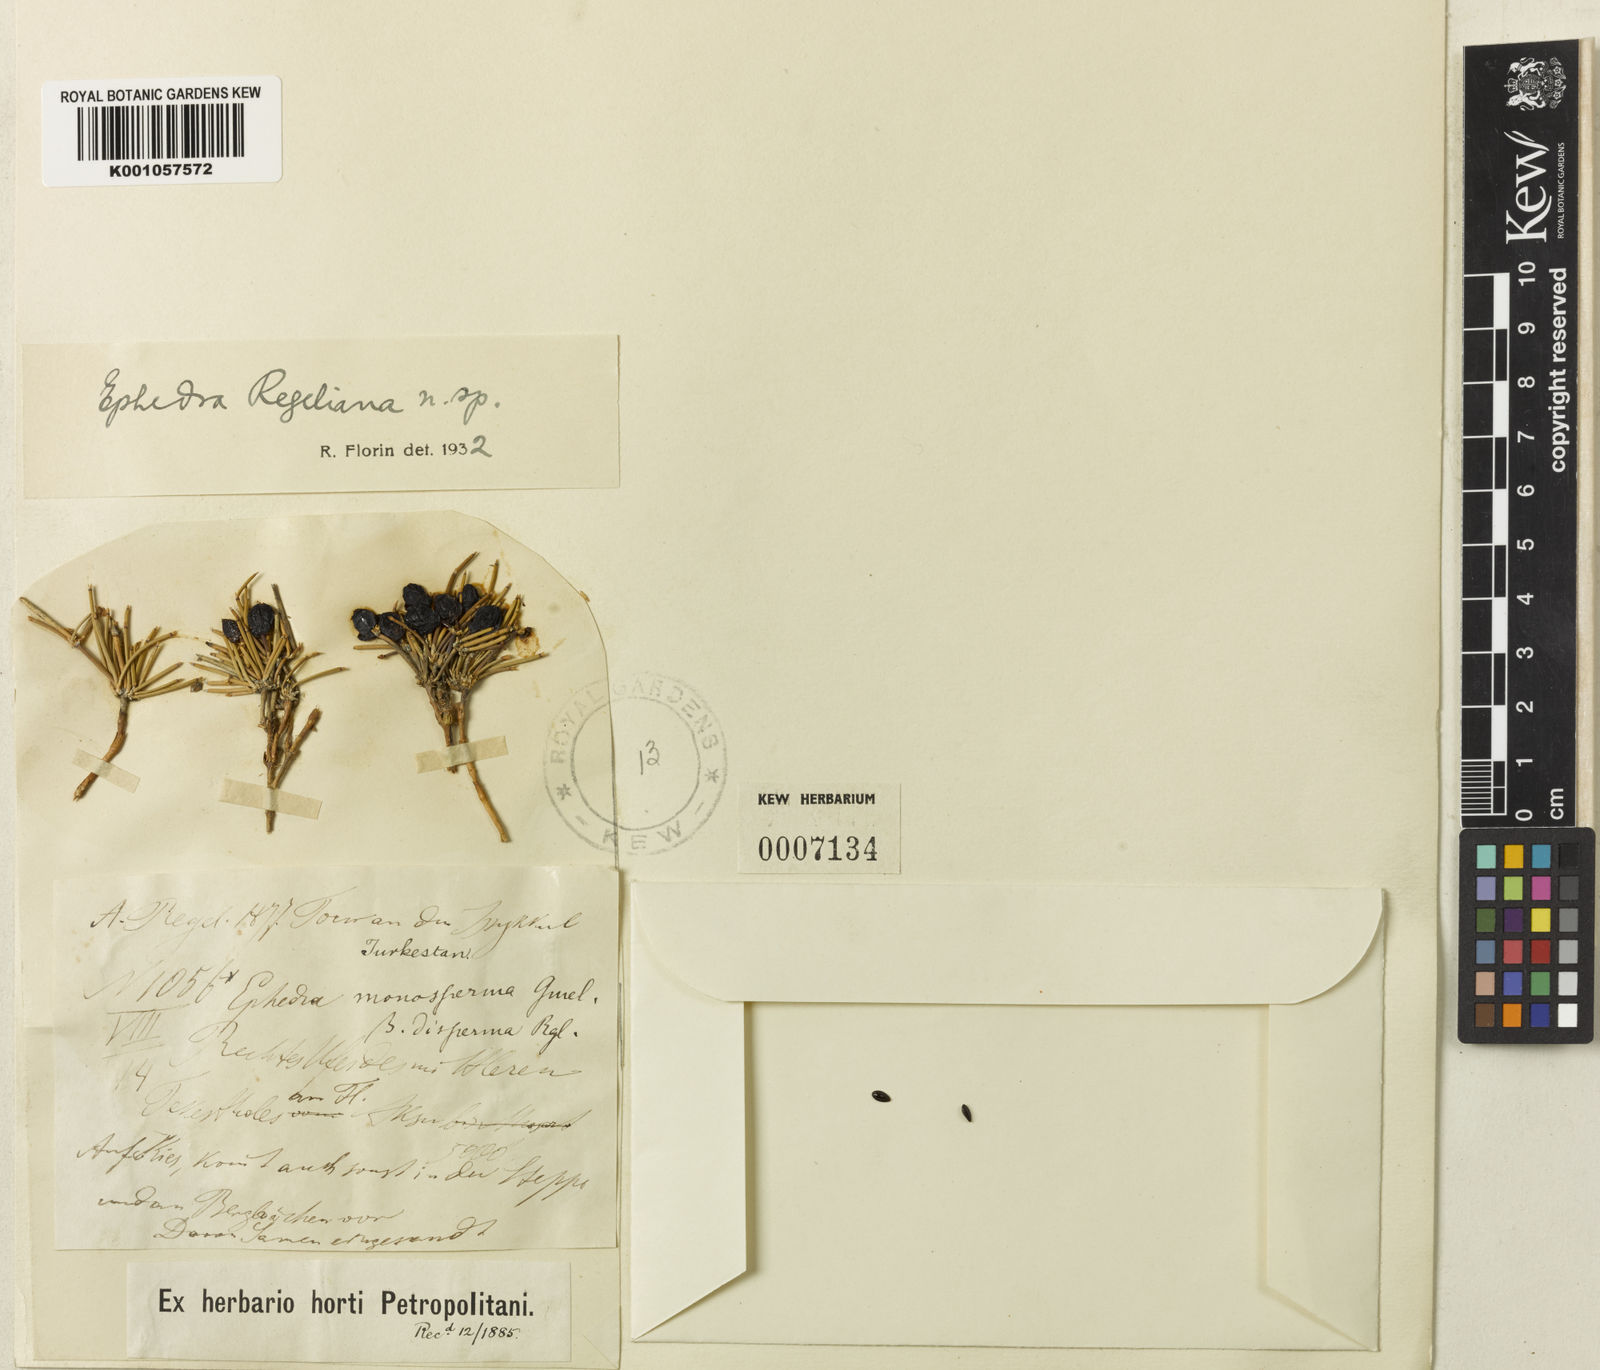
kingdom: Plantae
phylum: Tracheophyta
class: Gnetopsida
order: Ephedrales
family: Ephedraceae
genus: Ephedra
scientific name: Ephedra regeliana
